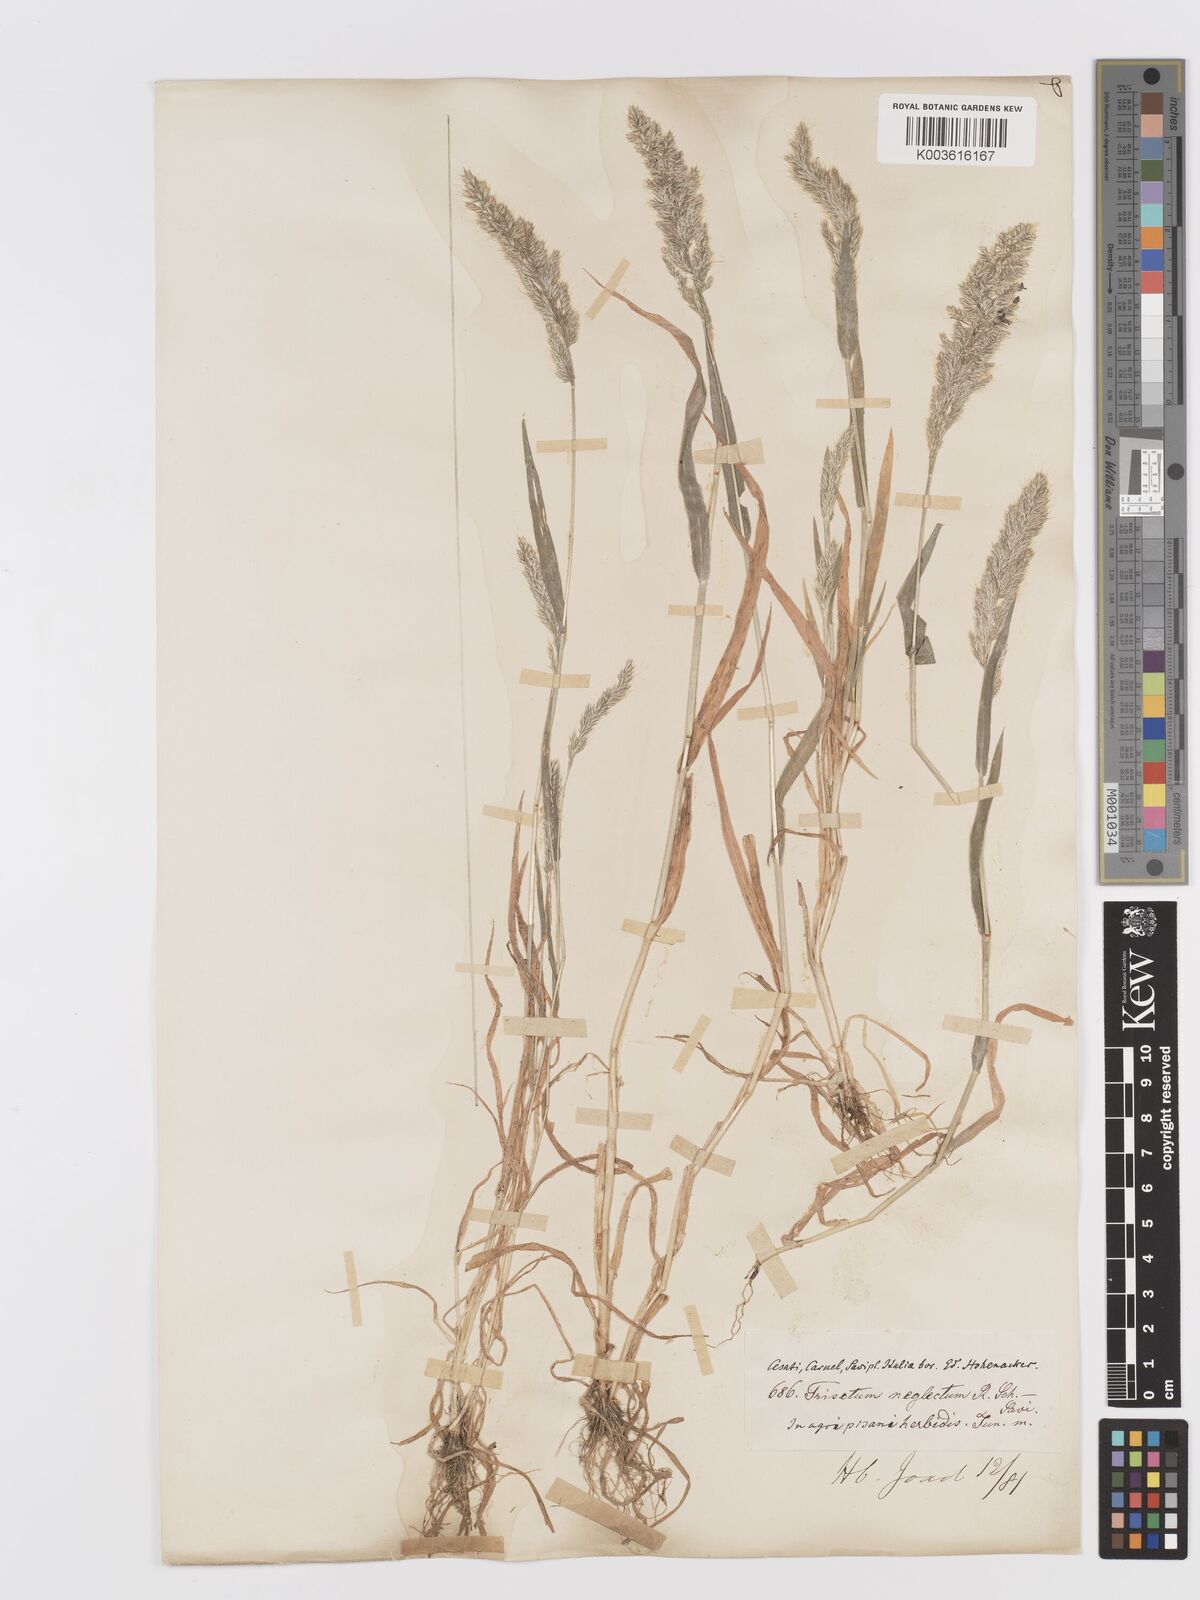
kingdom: Plantae
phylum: Tracheophyta
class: Liliopsida
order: Poales
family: Poaceae
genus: Trisetaria
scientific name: Trisetaria panicea
